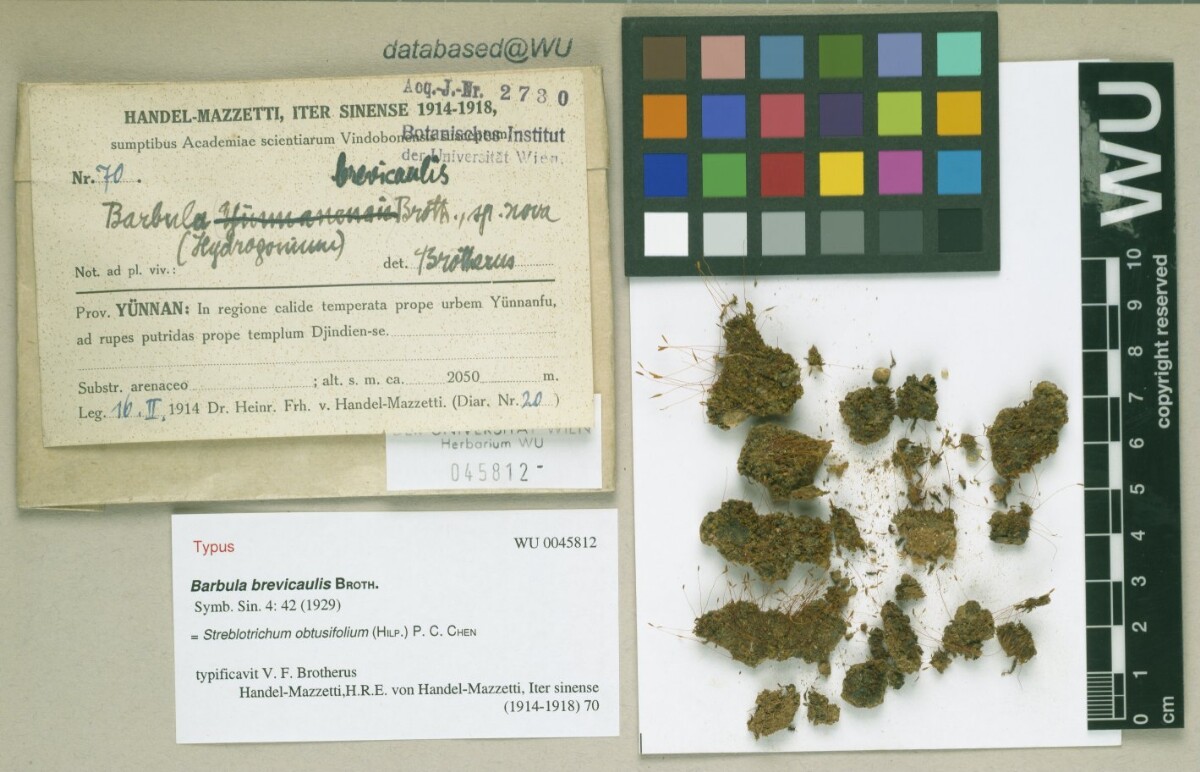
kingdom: Plantae
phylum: Bryophyta
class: Bryopsida
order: Pottiales
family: Pottiaceae
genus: Barbula
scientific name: Barbula chenia
